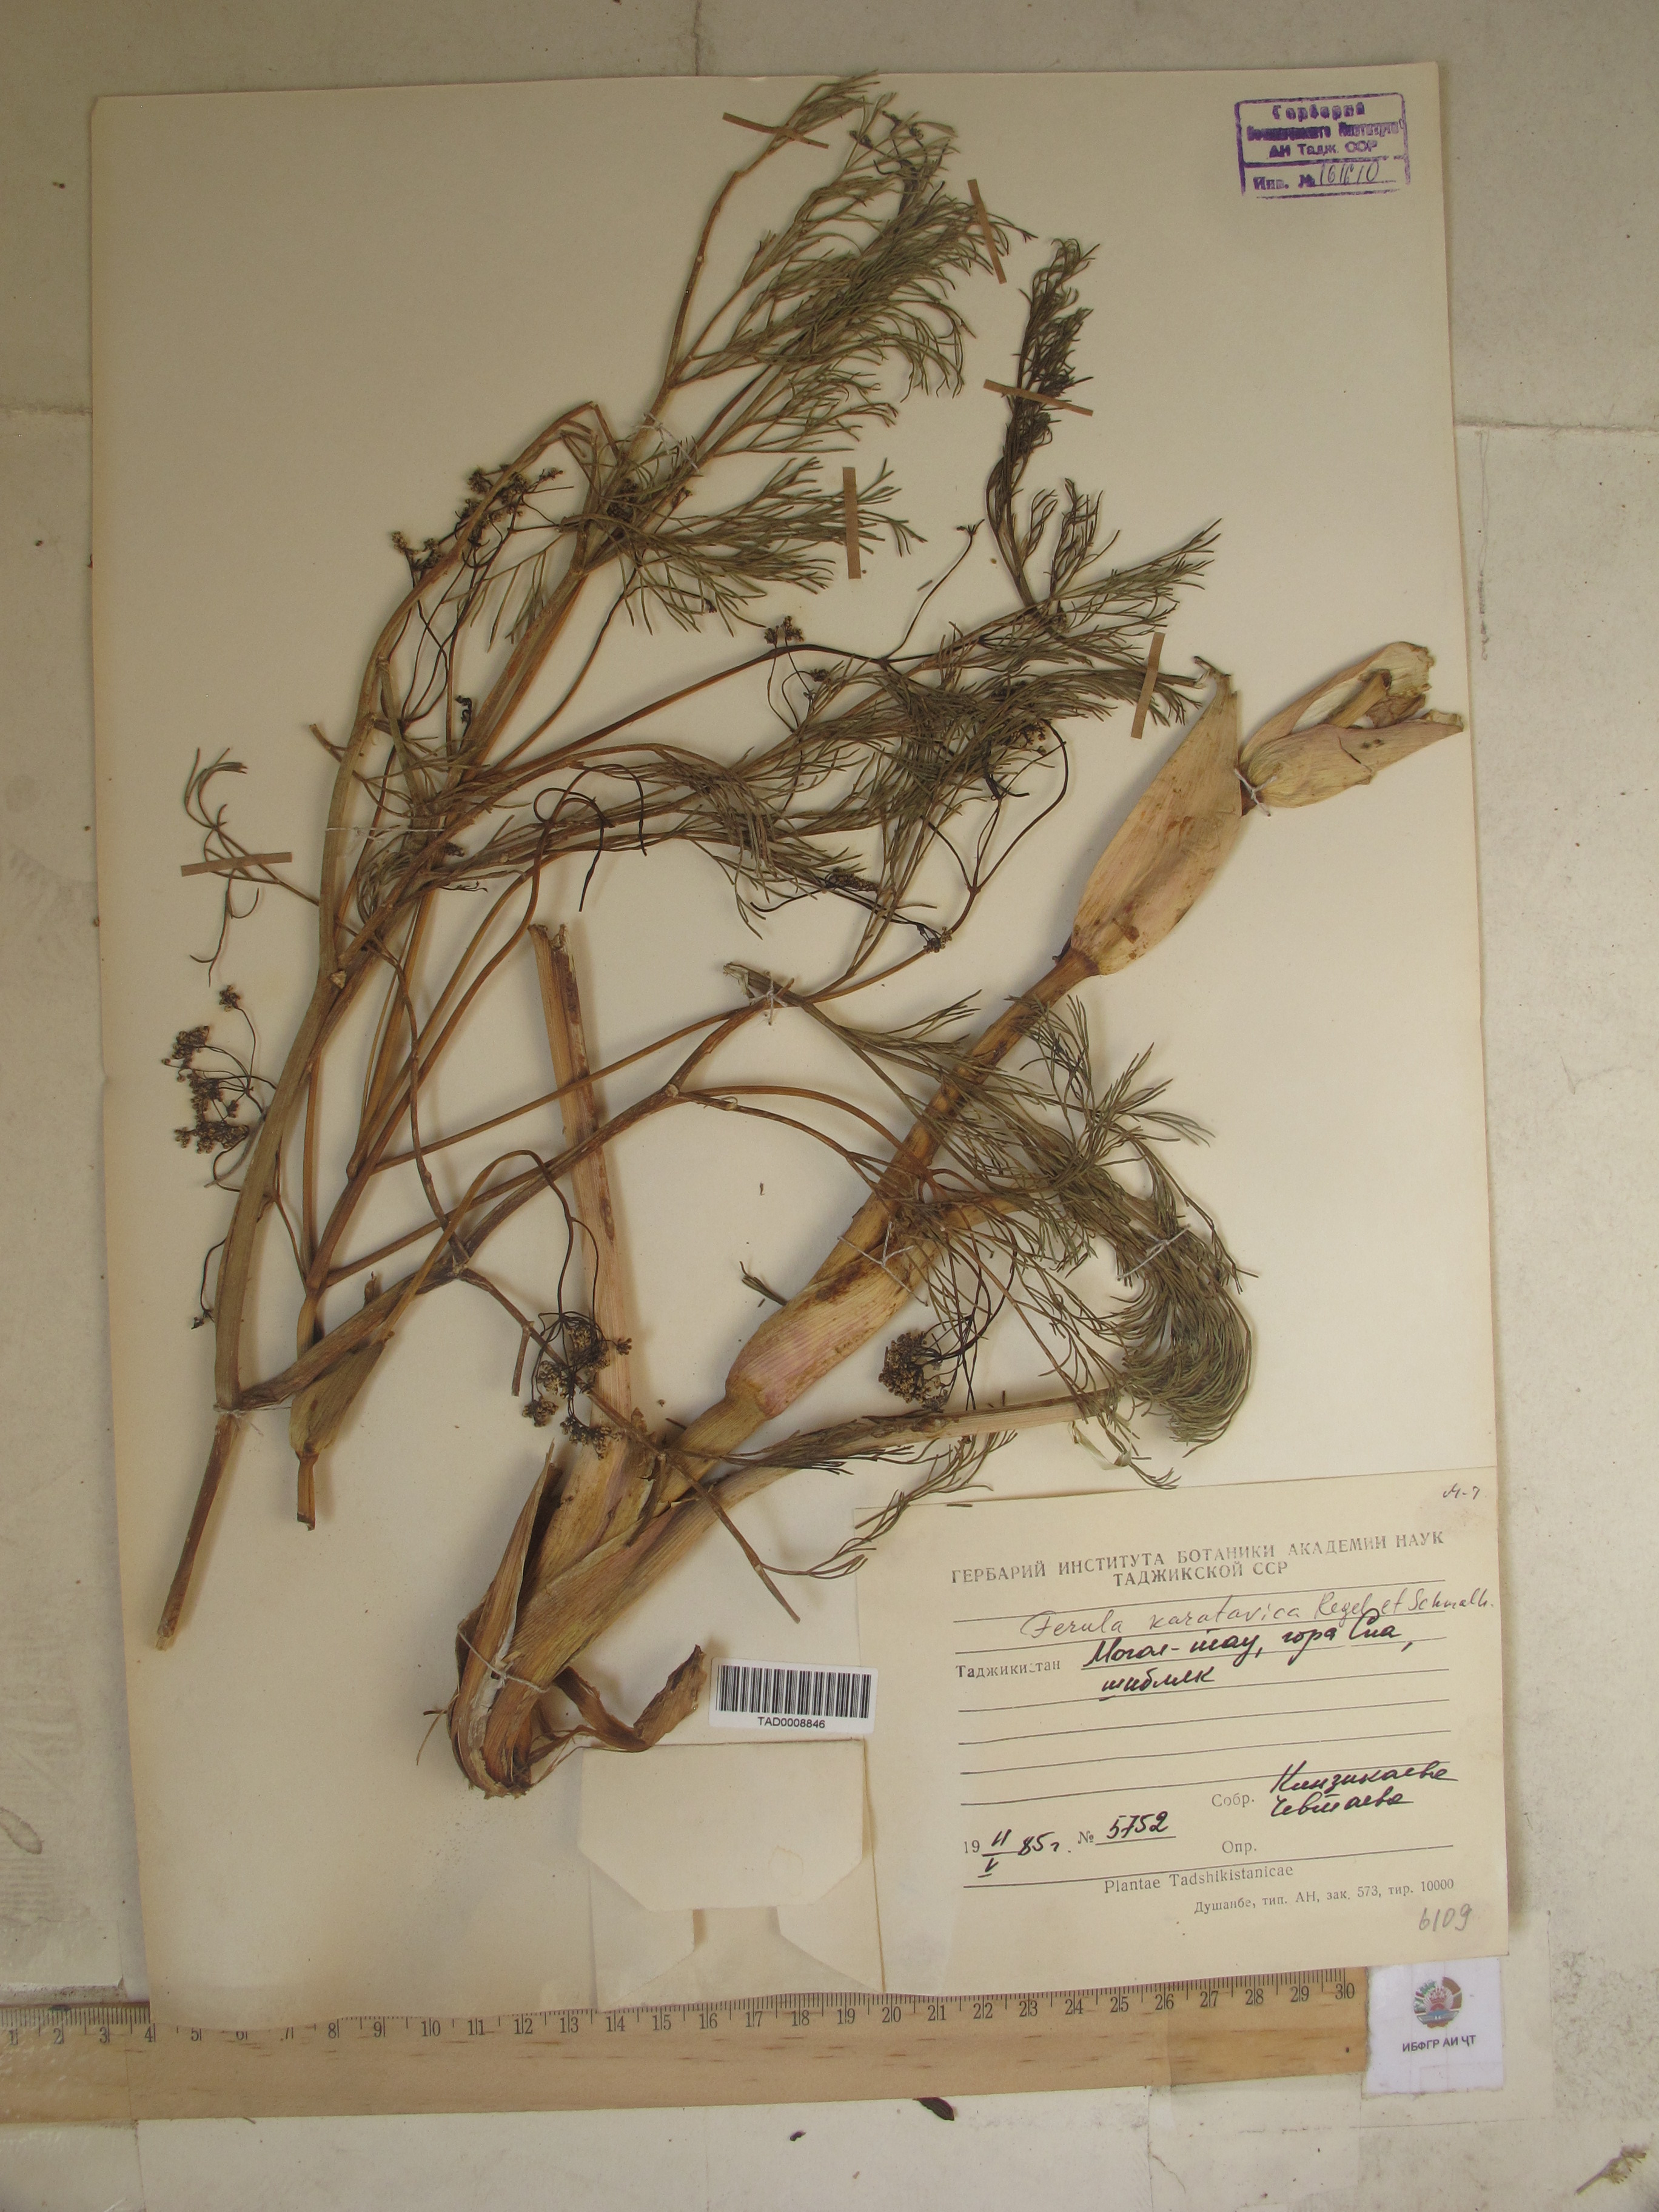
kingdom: Plantae
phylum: Tracheophyta
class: Magnoliopsida
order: Apiales
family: Apiaceae
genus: Ferula
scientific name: Ferula karatavica
